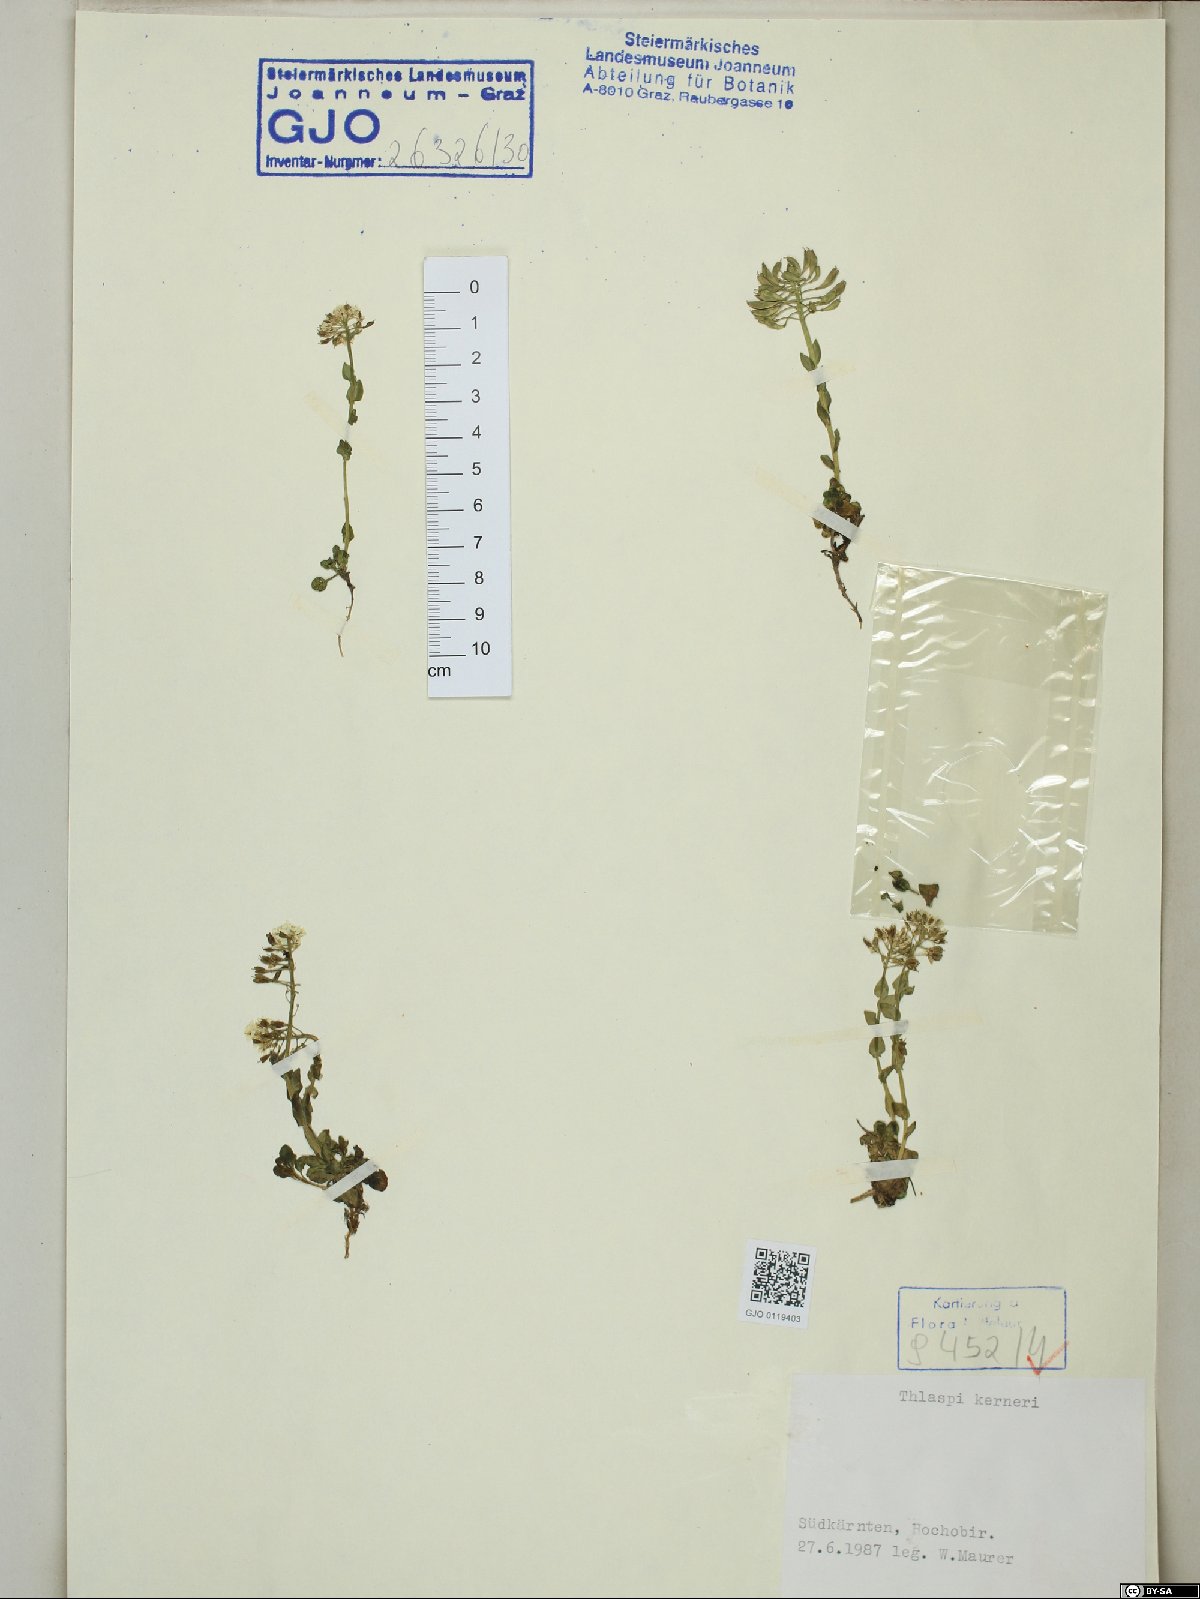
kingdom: Plantae
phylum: Tracheophyta
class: Magnoliopsida
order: Brassicales
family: Brassicaceae
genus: Noccaea
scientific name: Noccaea minima
